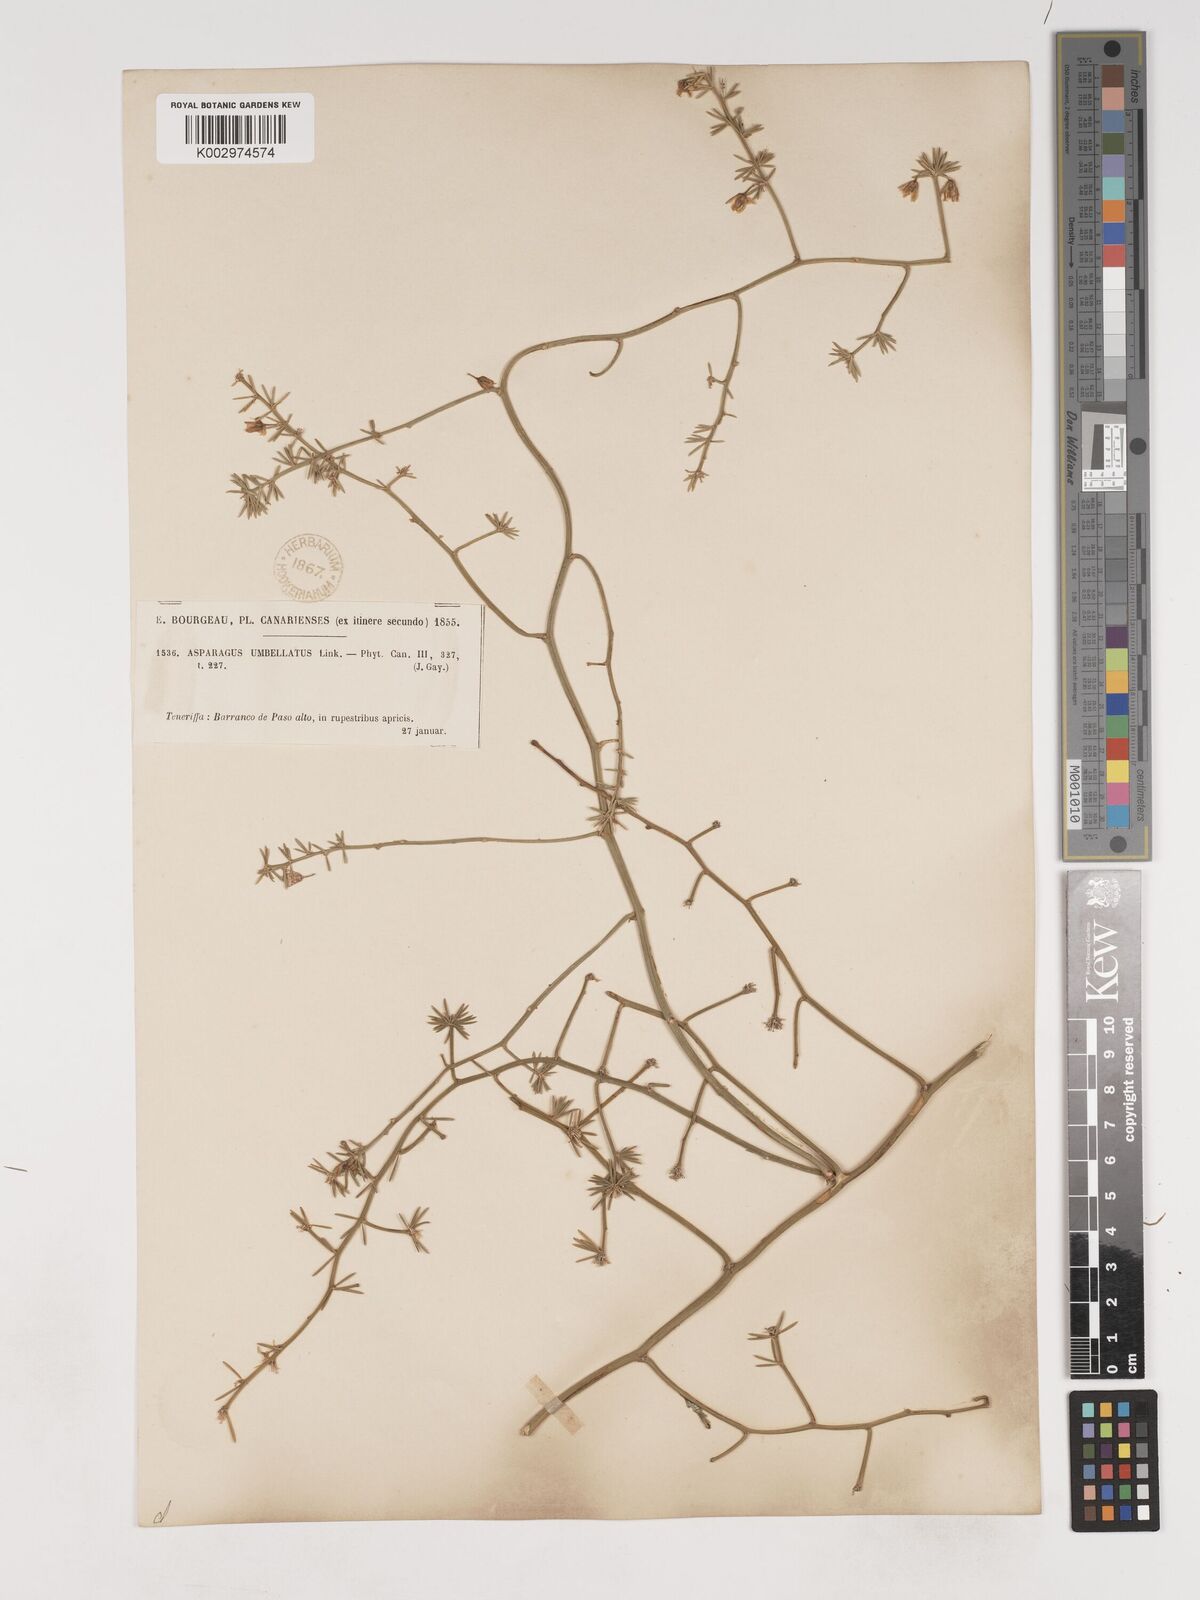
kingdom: Plantae
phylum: Tracheophyta
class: Liliopsida
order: Asparagales
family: Asparagaceae
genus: Asparagus
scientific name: Asparagus umbellatus
